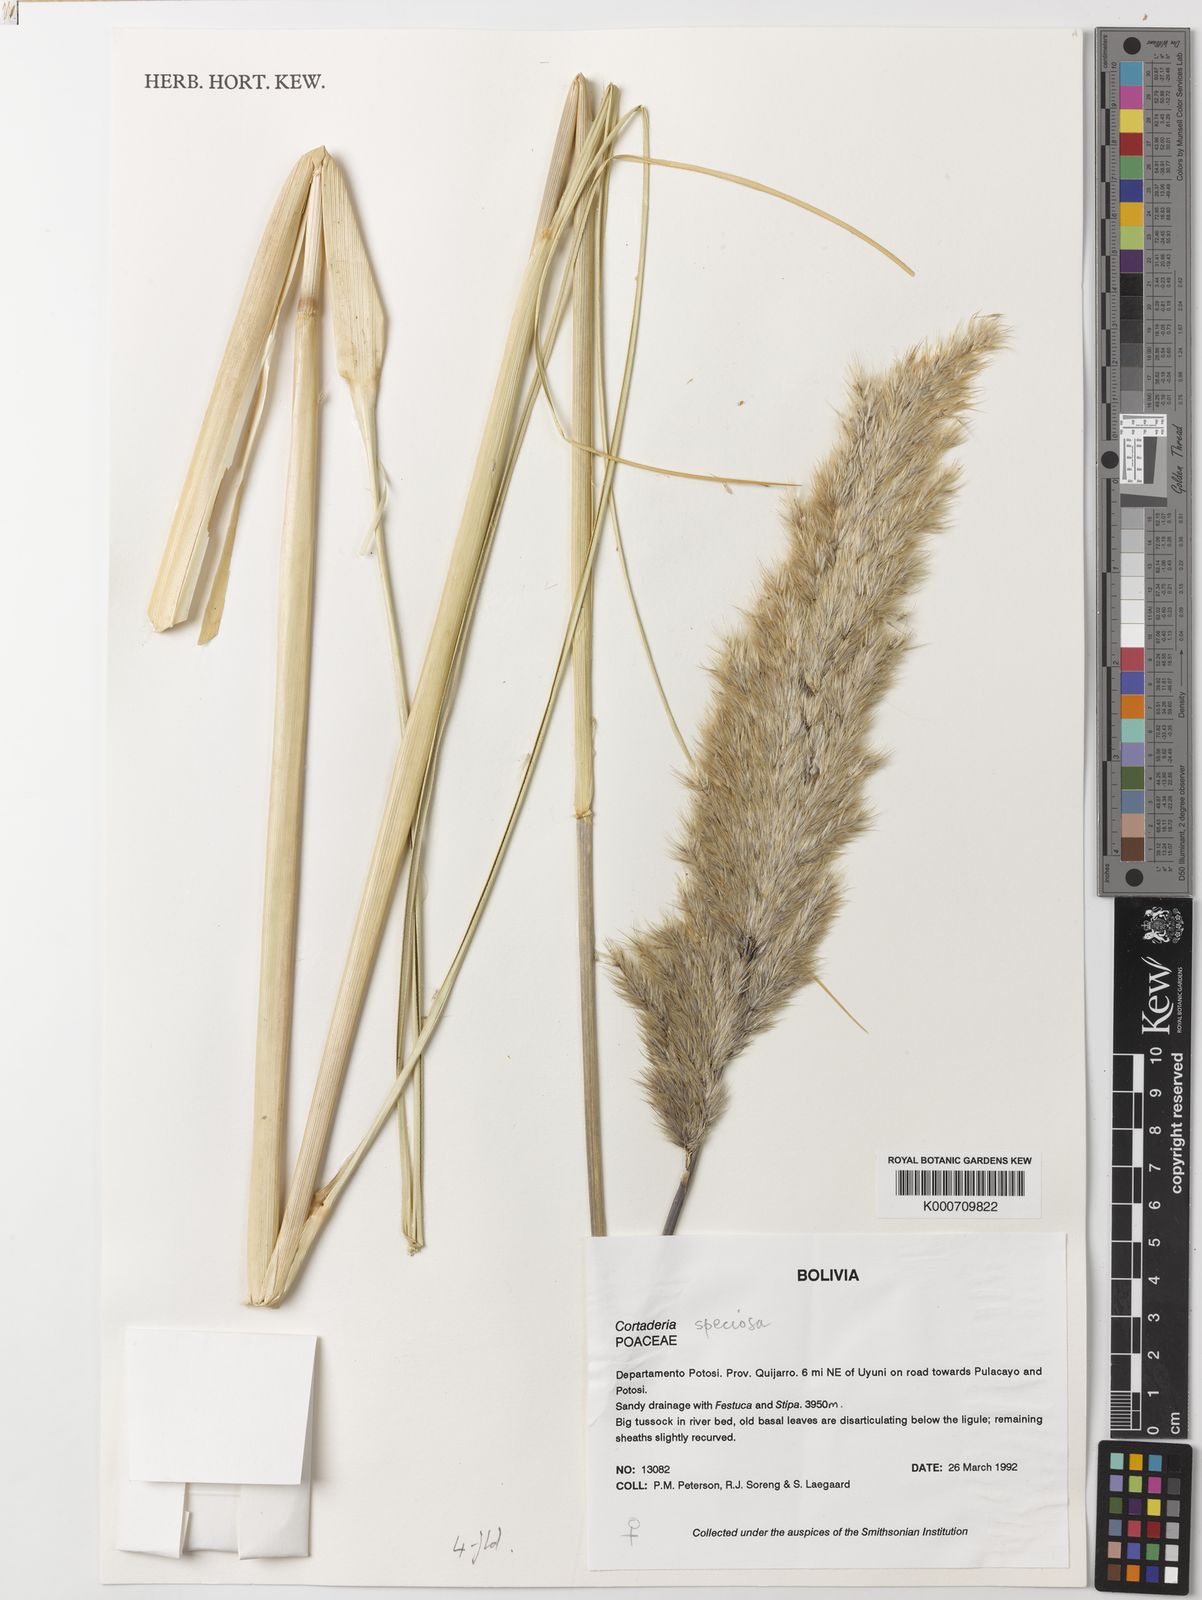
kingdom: Plantae
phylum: Tracheophyta
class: Liliopsida
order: Poales
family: Poaceae
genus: Cortaderia
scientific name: Cortaderia speciosa
